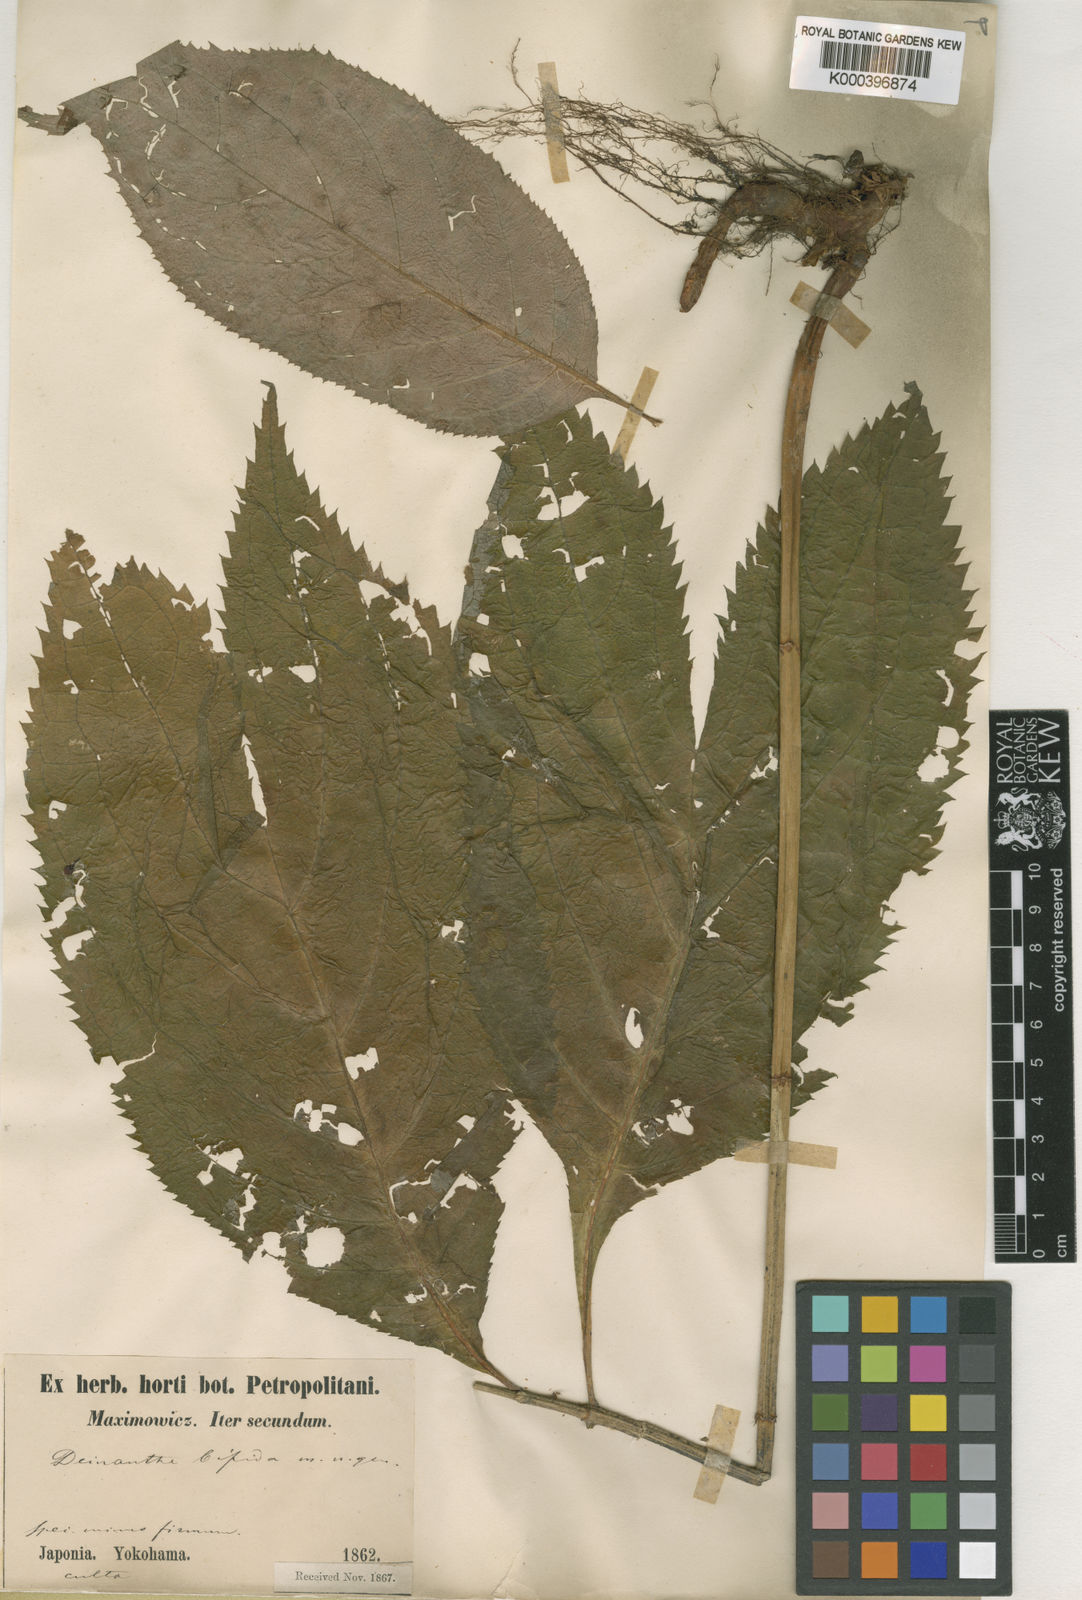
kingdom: Plantae
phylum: Tracheophyta
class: Magnoliopsida
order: Cornales
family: Hydrangeaceae
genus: Hydrangea
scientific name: Hydrangea bifida
